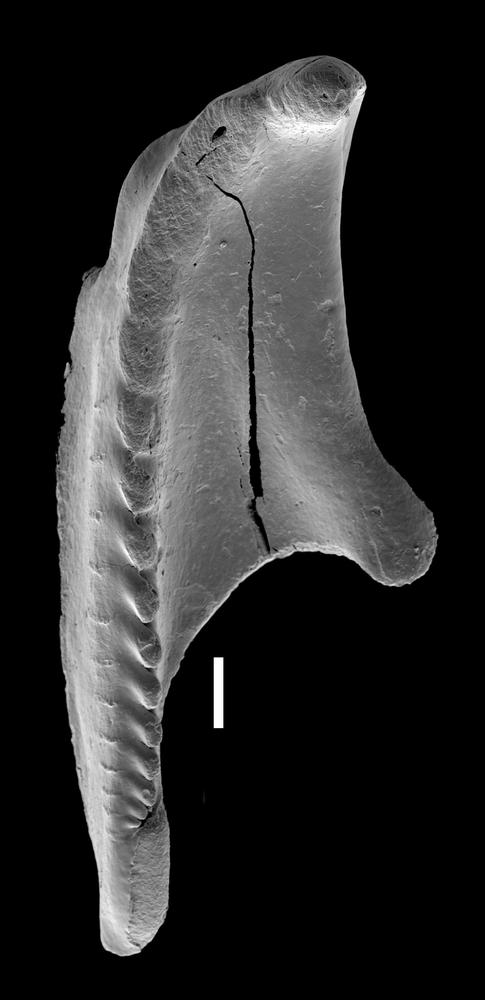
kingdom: Animalia
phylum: Annelida
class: Polychaeta
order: Eunicida
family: Polychaetaspidae
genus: Oenonites
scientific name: Oenonites zappae
